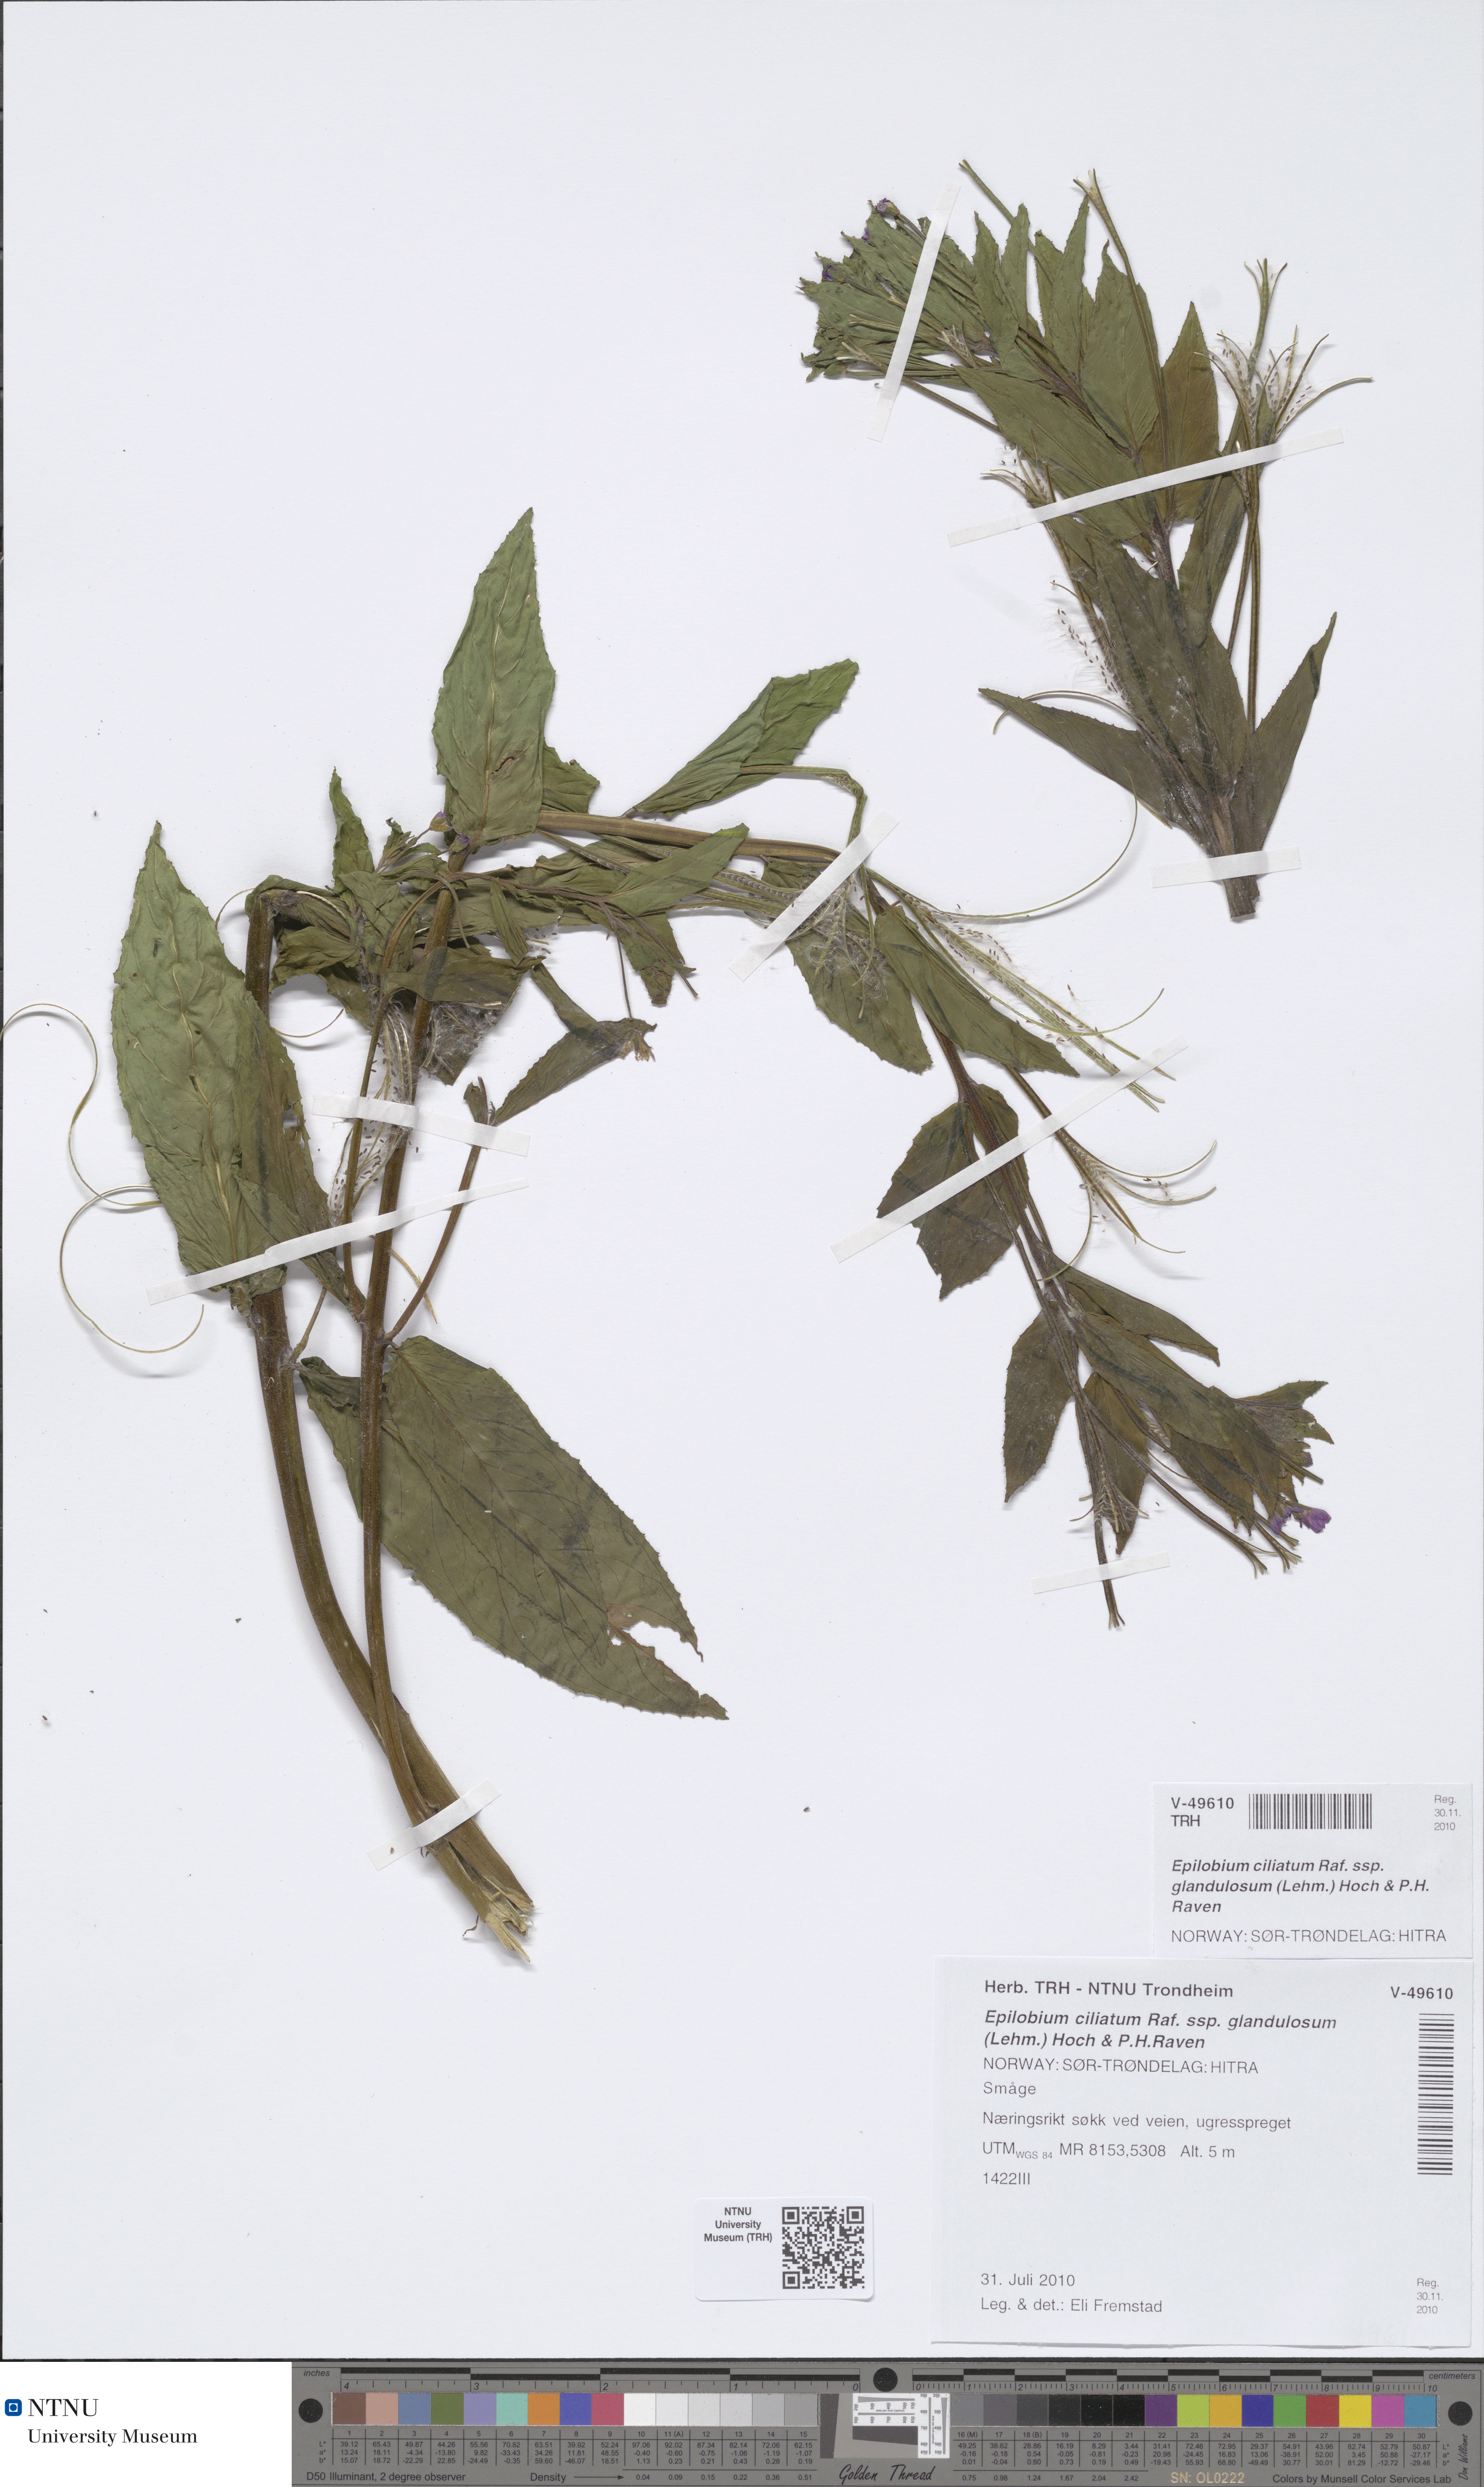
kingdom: Plantae
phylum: Tracheophyta
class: Magnoliopsida
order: Myrtales
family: Onagraceae
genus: Epilobium
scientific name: Epilobium ciliatum
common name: American willowherb
